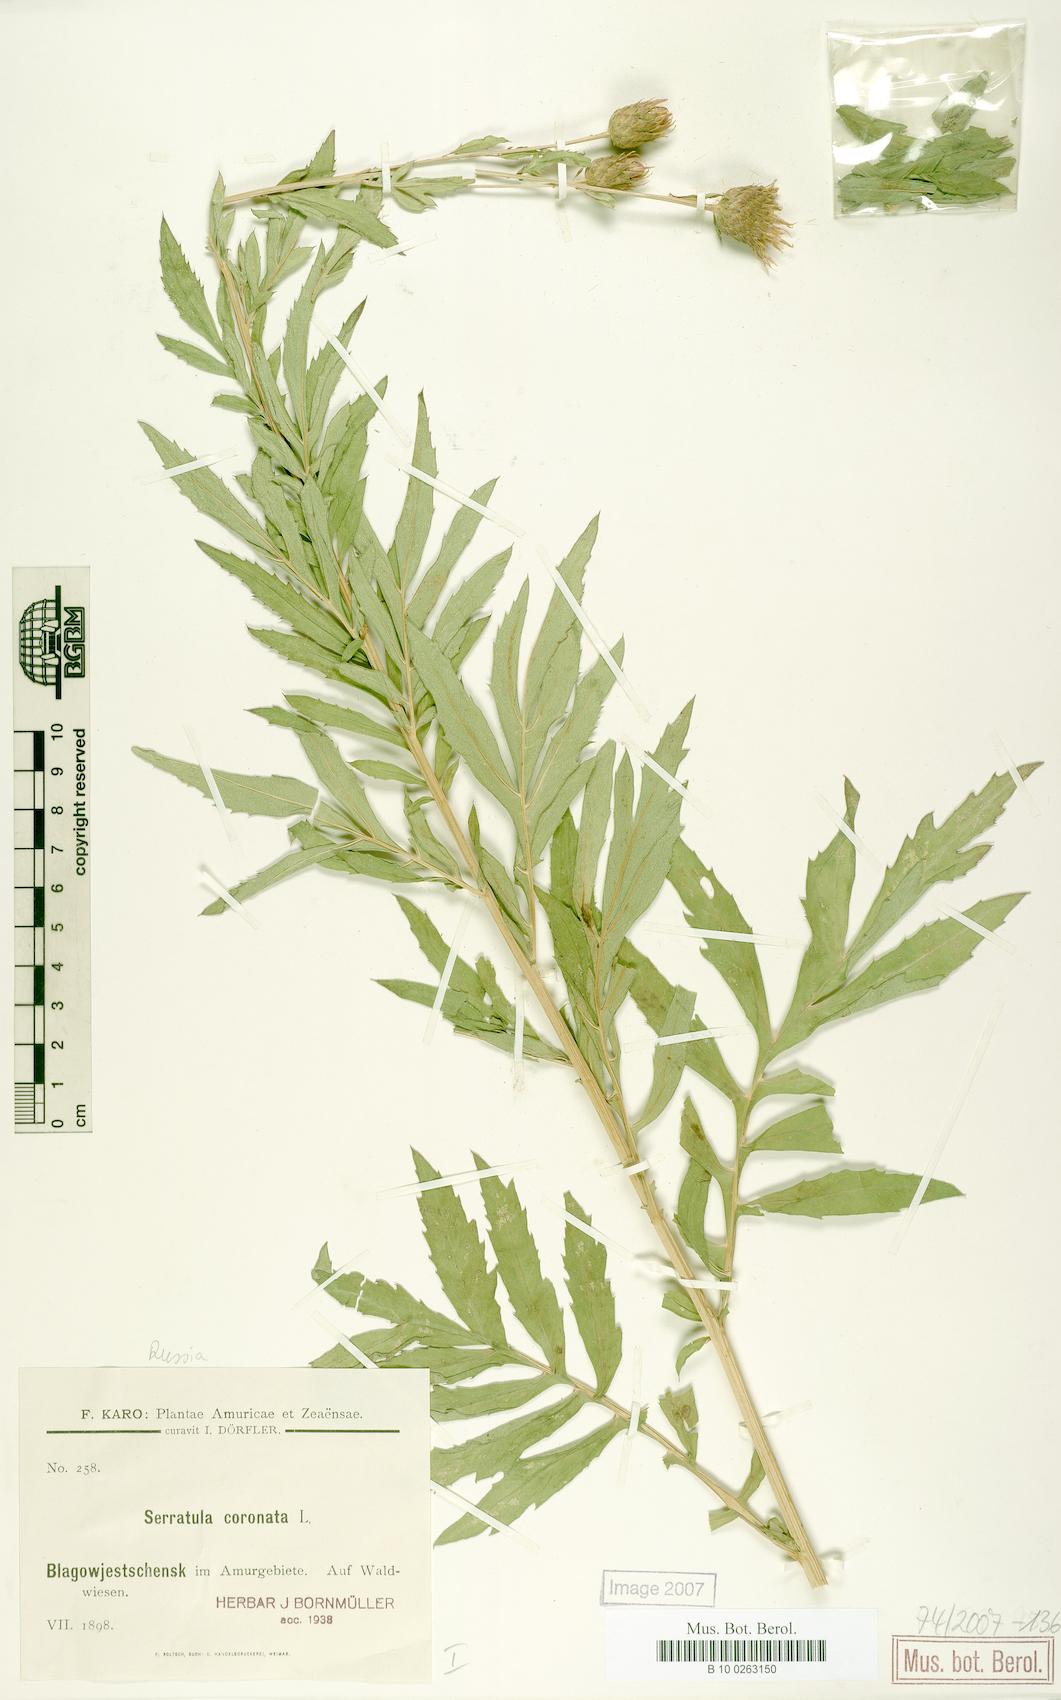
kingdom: Plantae
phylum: Tracheophyta
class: Magnoliopsida
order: Asterales
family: Asteraceae
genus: Serratula
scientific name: Serratula coronata
